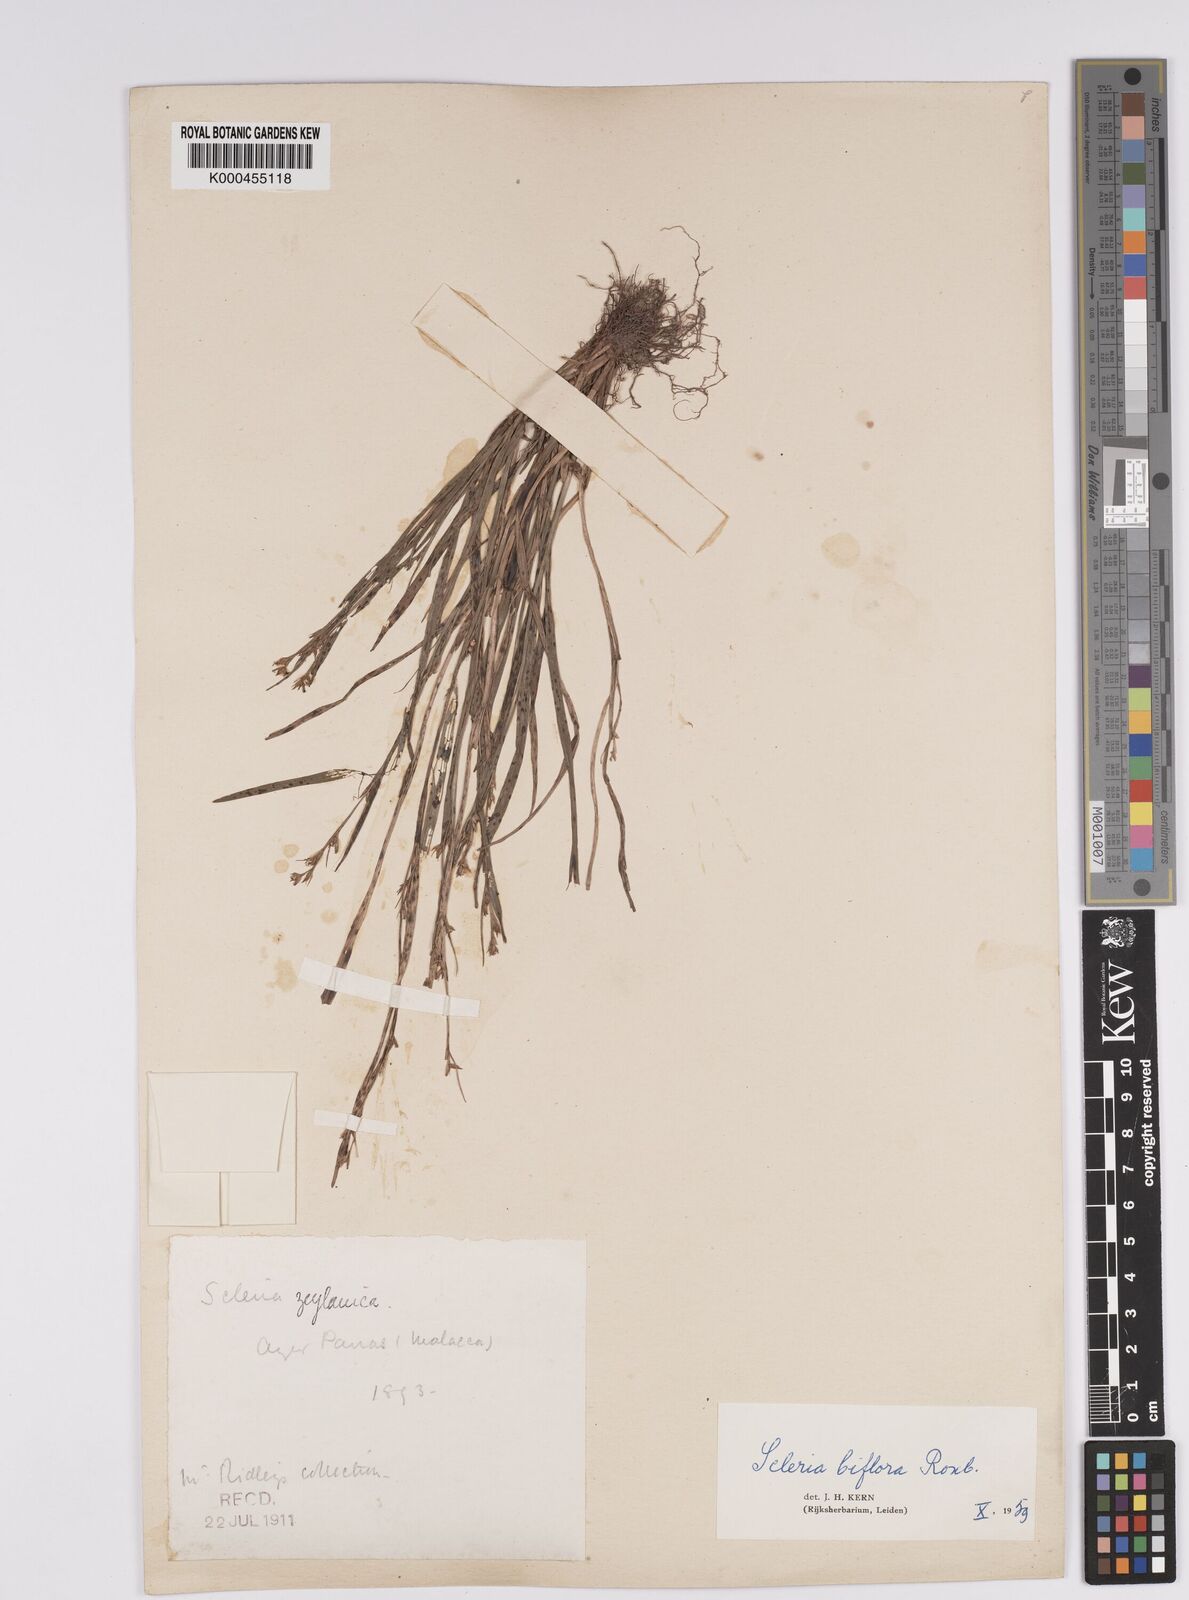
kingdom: Plantae
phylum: Tracheophyta
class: Liliopsida
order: Poales
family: Cyperaceae
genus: Scleria
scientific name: Scleria biflora
